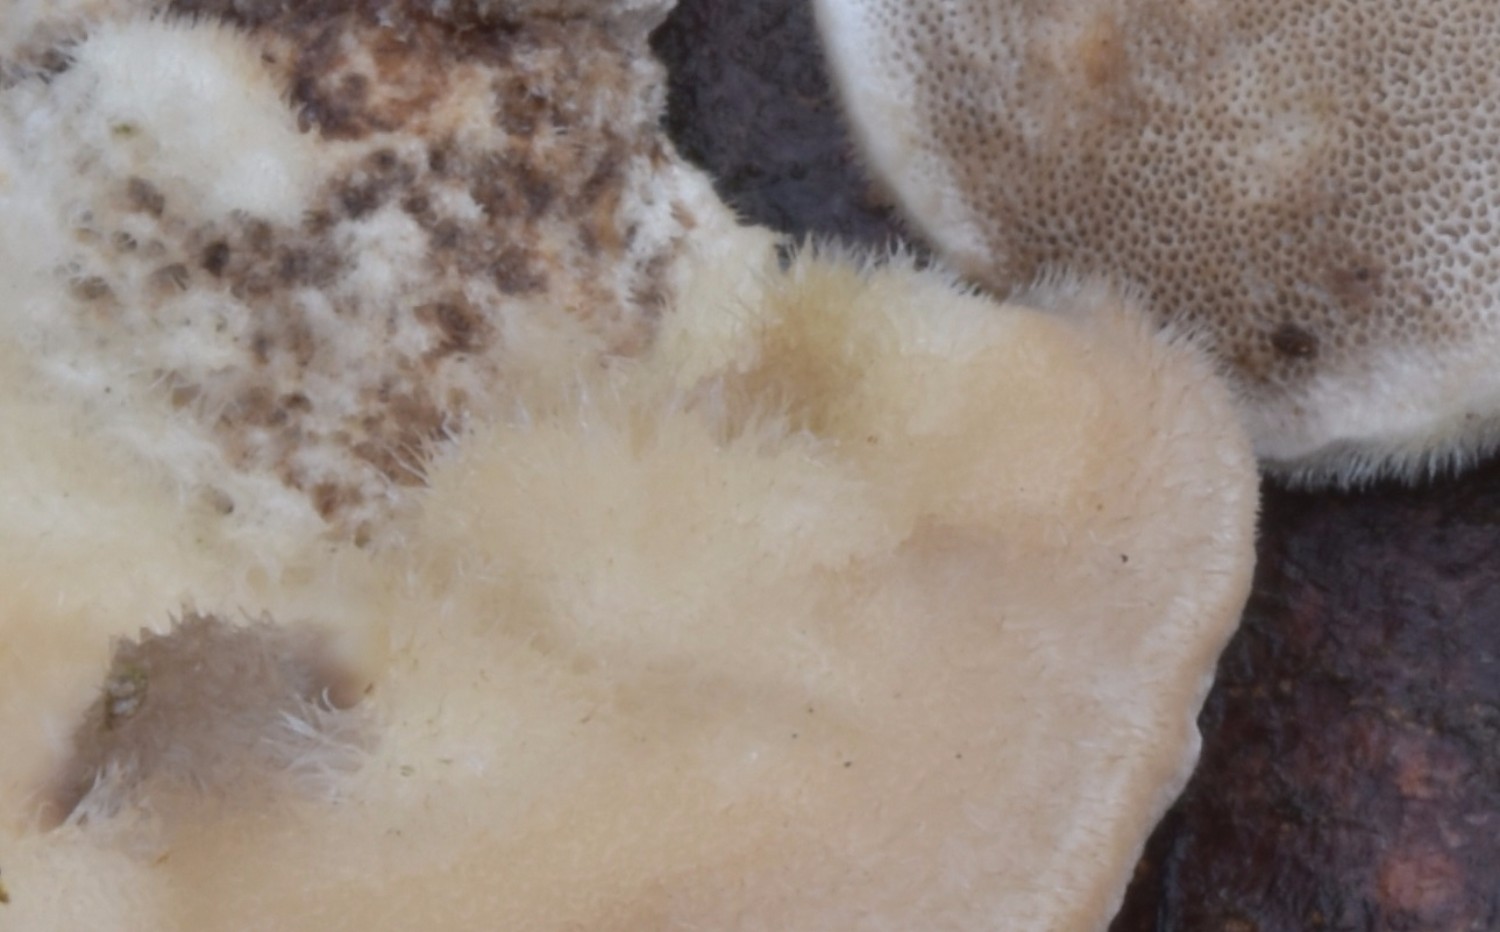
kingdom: Fungi
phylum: Basidiomycota
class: Agaricomycetes
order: Polyporales
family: Polyporaceae
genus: Trametes
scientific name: Trametes hirsuta
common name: håret læderporesvamp
